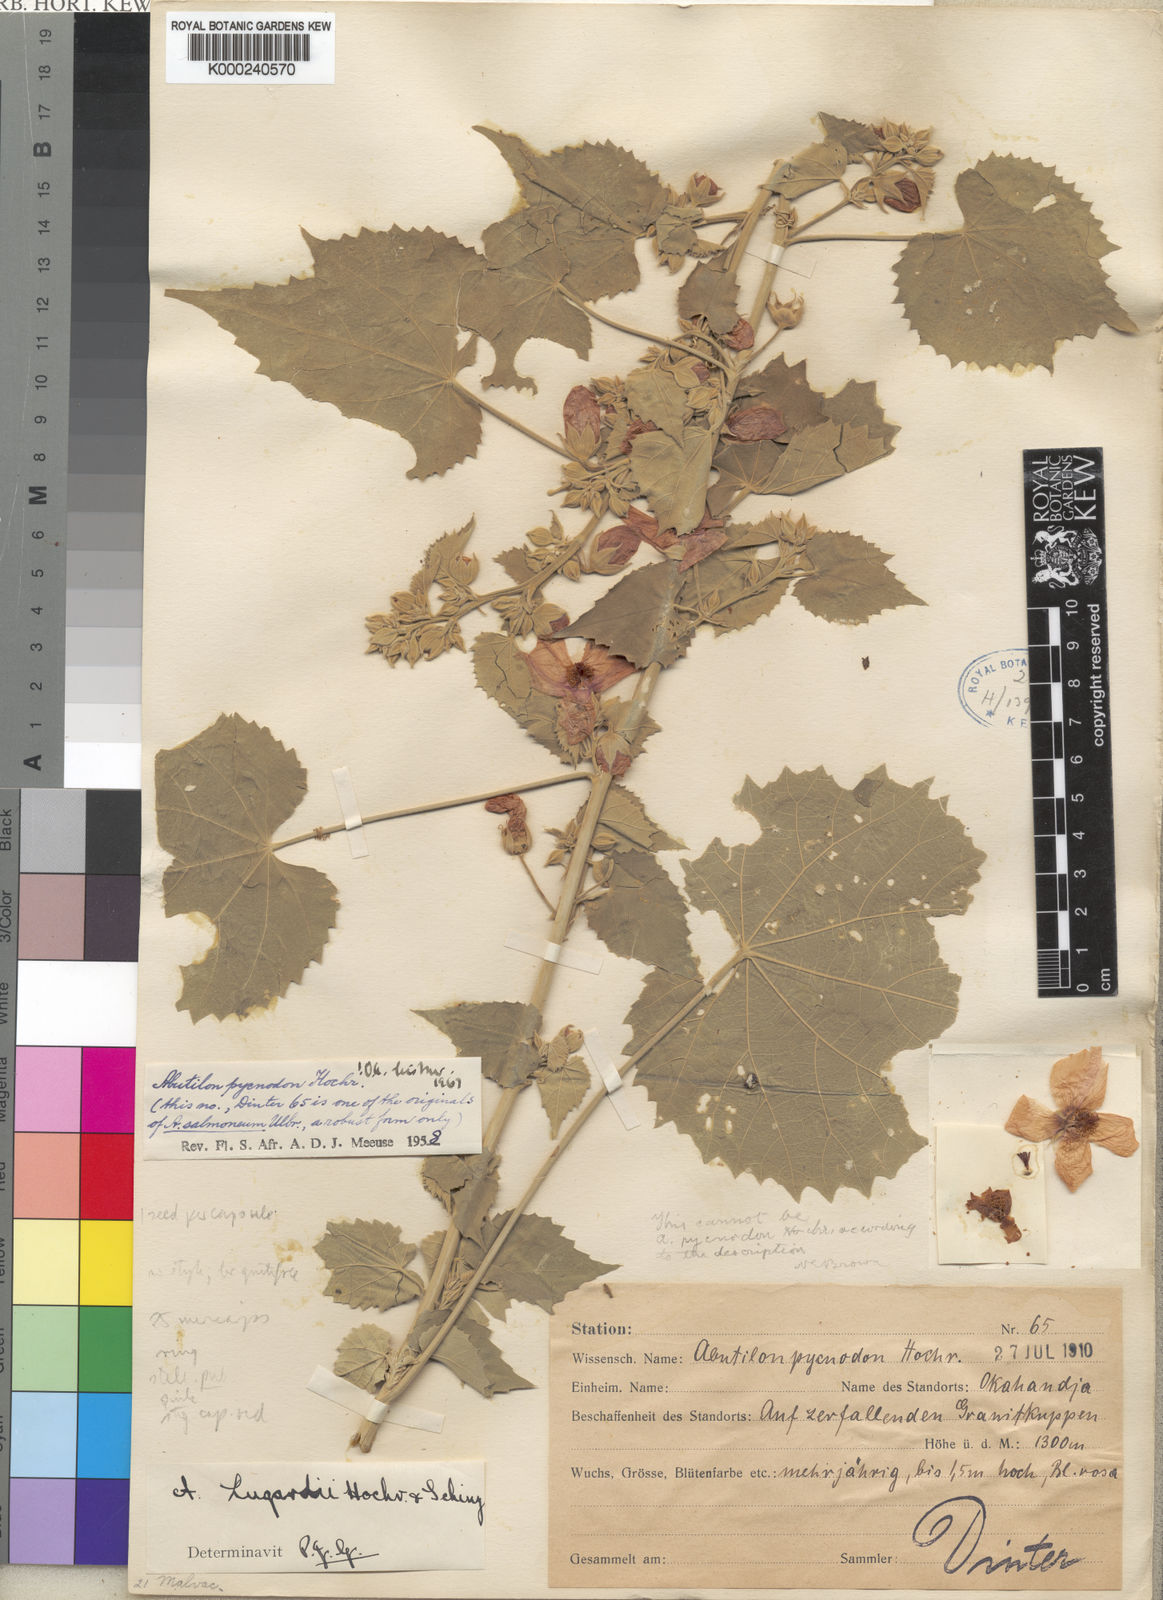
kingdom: Plantae
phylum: Tracheophyta
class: Magnoliopsida
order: Malvales
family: Malvaceae
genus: Abutilon
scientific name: Abutilon pilosocinereum
